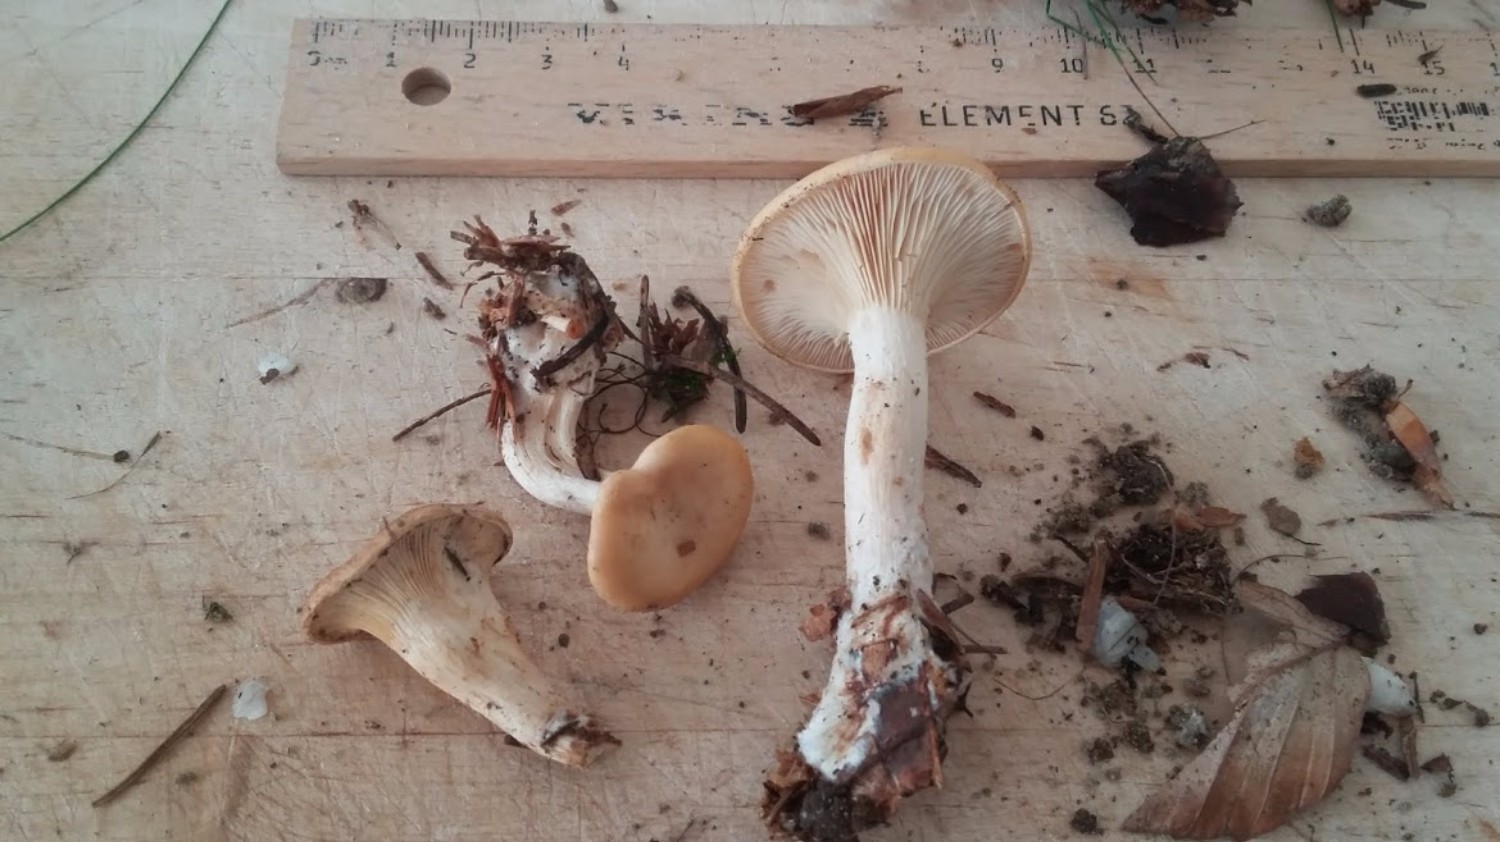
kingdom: Fungi
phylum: Basidiomycota
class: Agaricomycetes
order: Agaricales
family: Tricholomataceae
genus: Paralepista
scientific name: Paralepista flaccida
